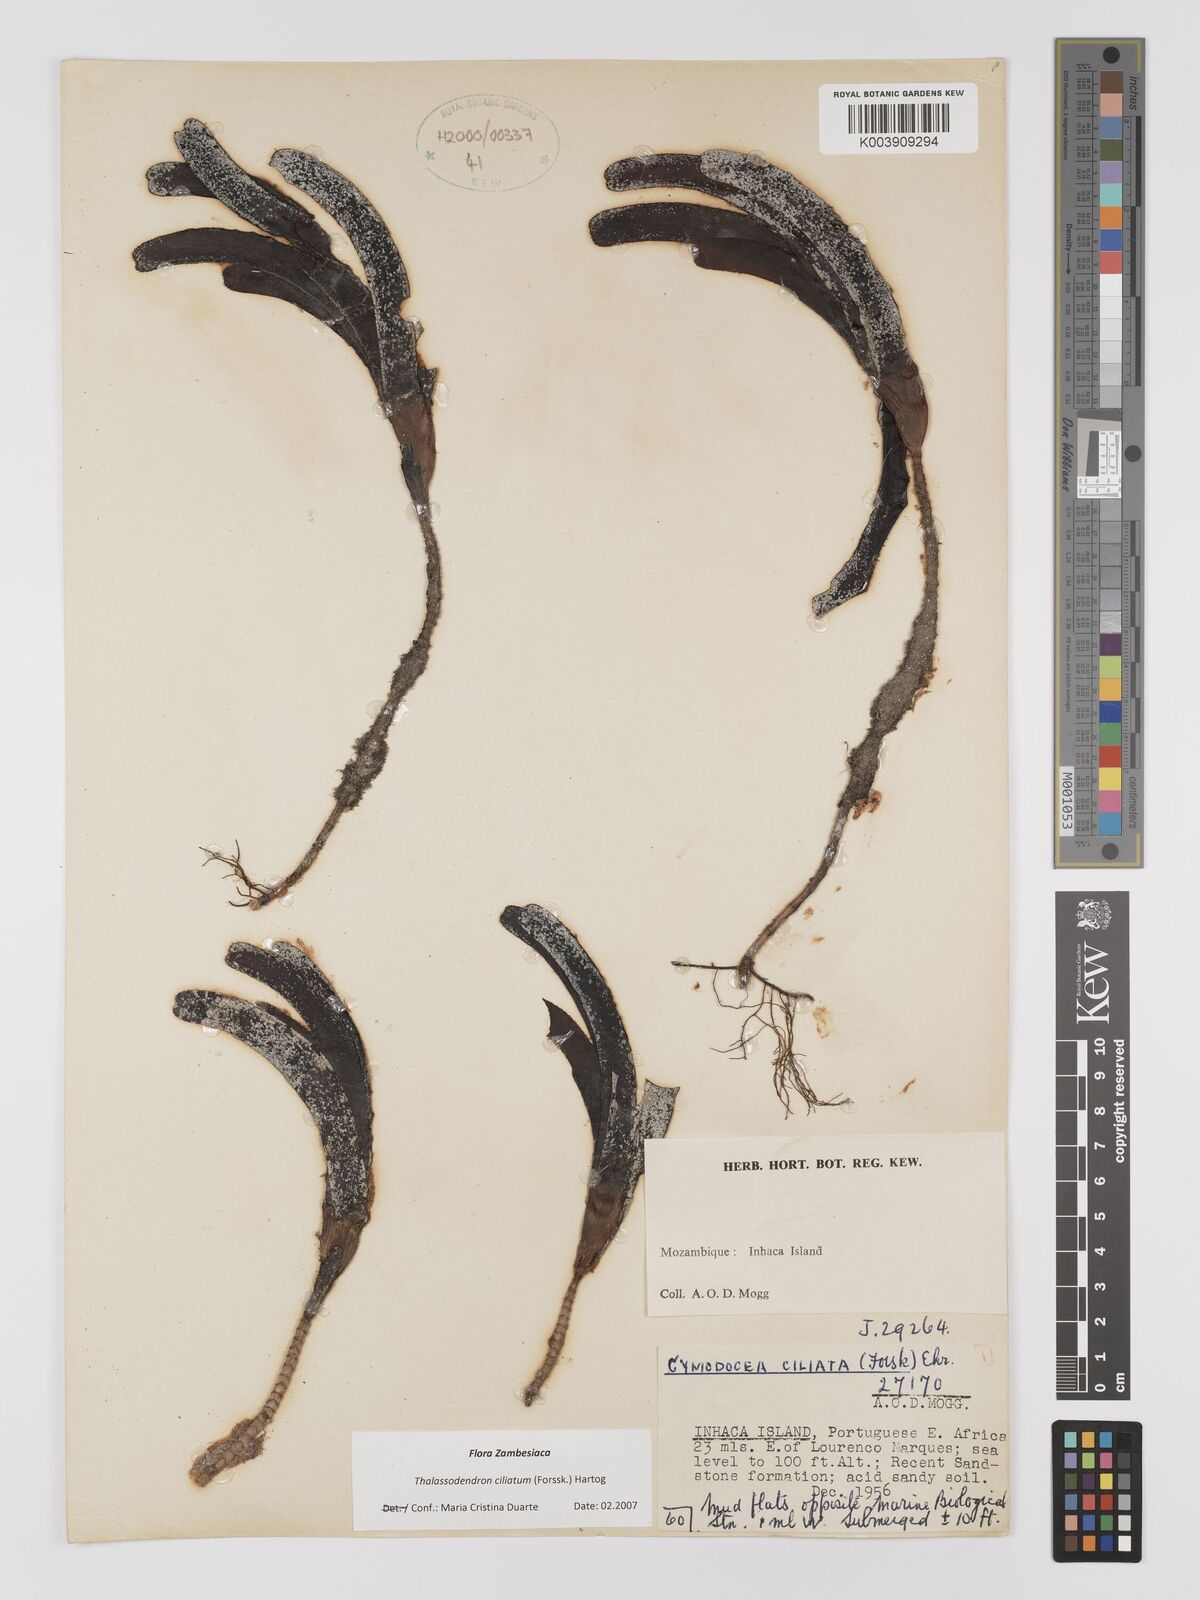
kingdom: Plantae
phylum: Tracheophyta
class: Liliopsida
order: Alismatales
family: Cymodoceaceae
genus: Thalassodendron
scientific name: Thalassodendron ciliatum
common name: Species code: tc
